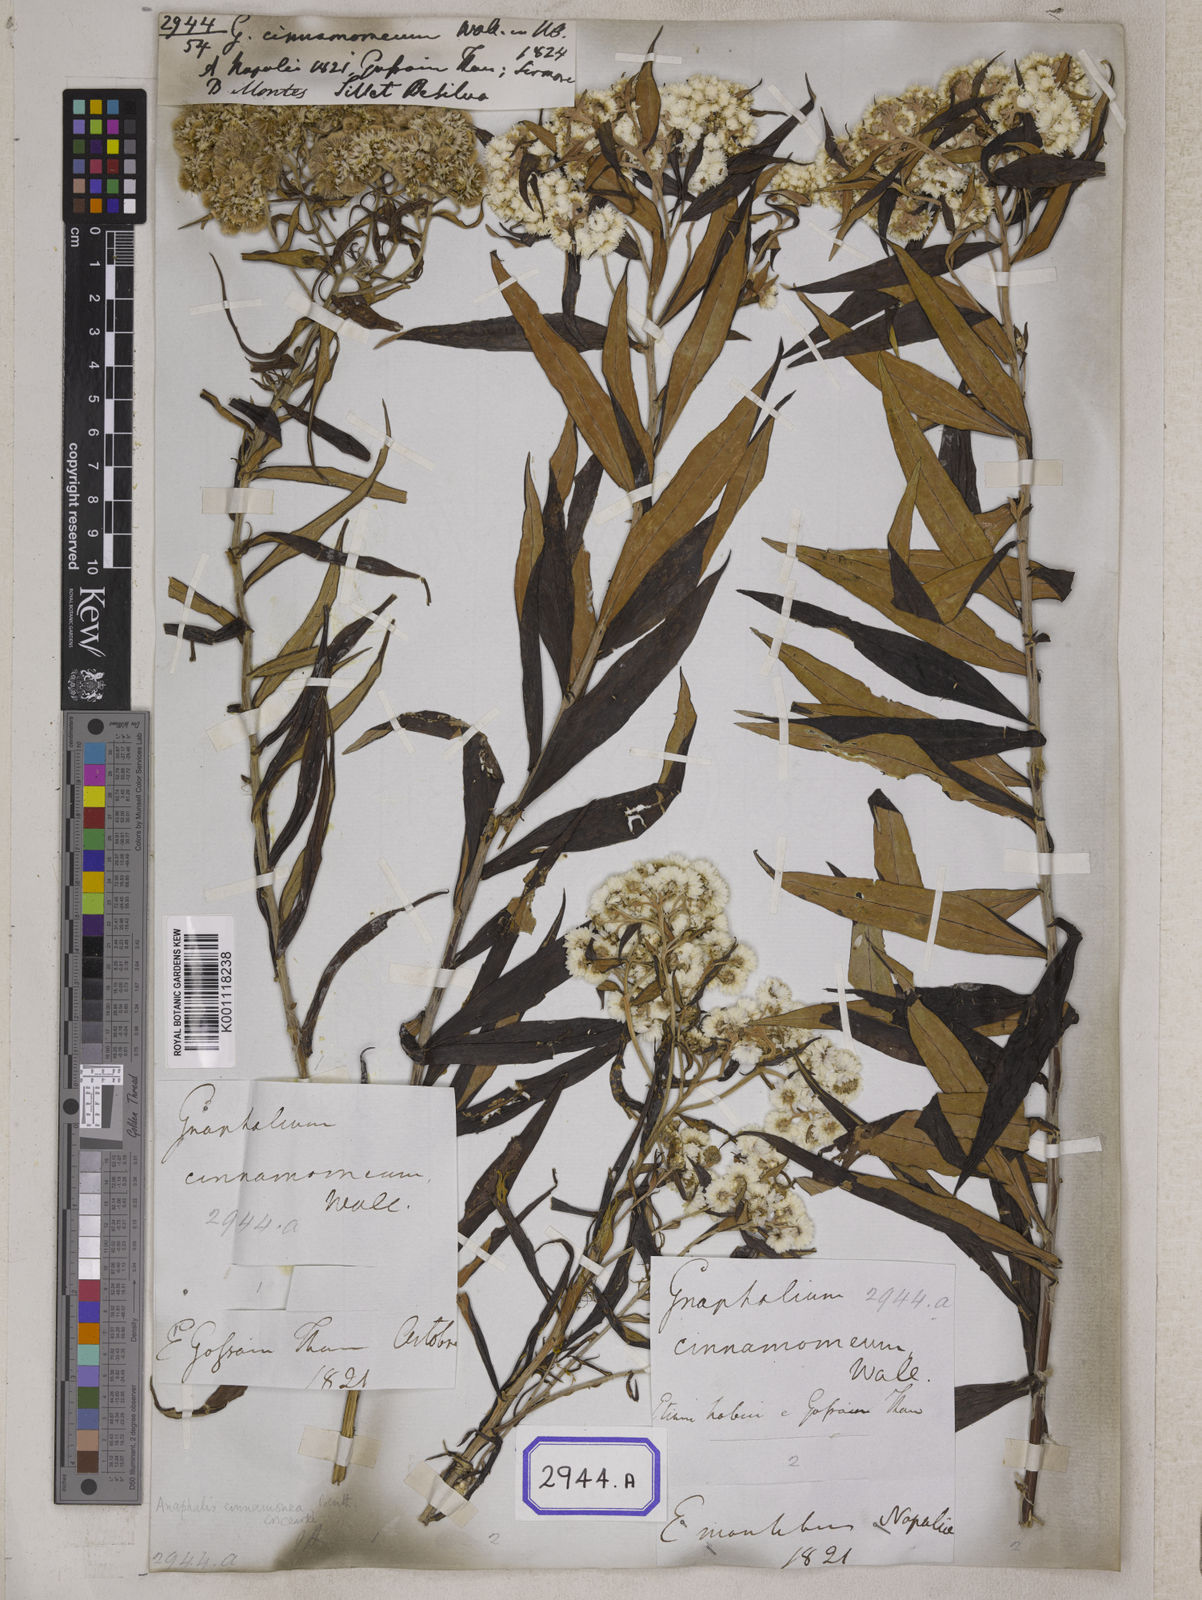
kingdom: Plantae
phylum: Tracheophyta
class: Magnoliopsida
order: Asterales
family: Asteraceae
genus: Anaphalis
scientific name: Anaphalis margaritacea
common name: Pearly everlasting
